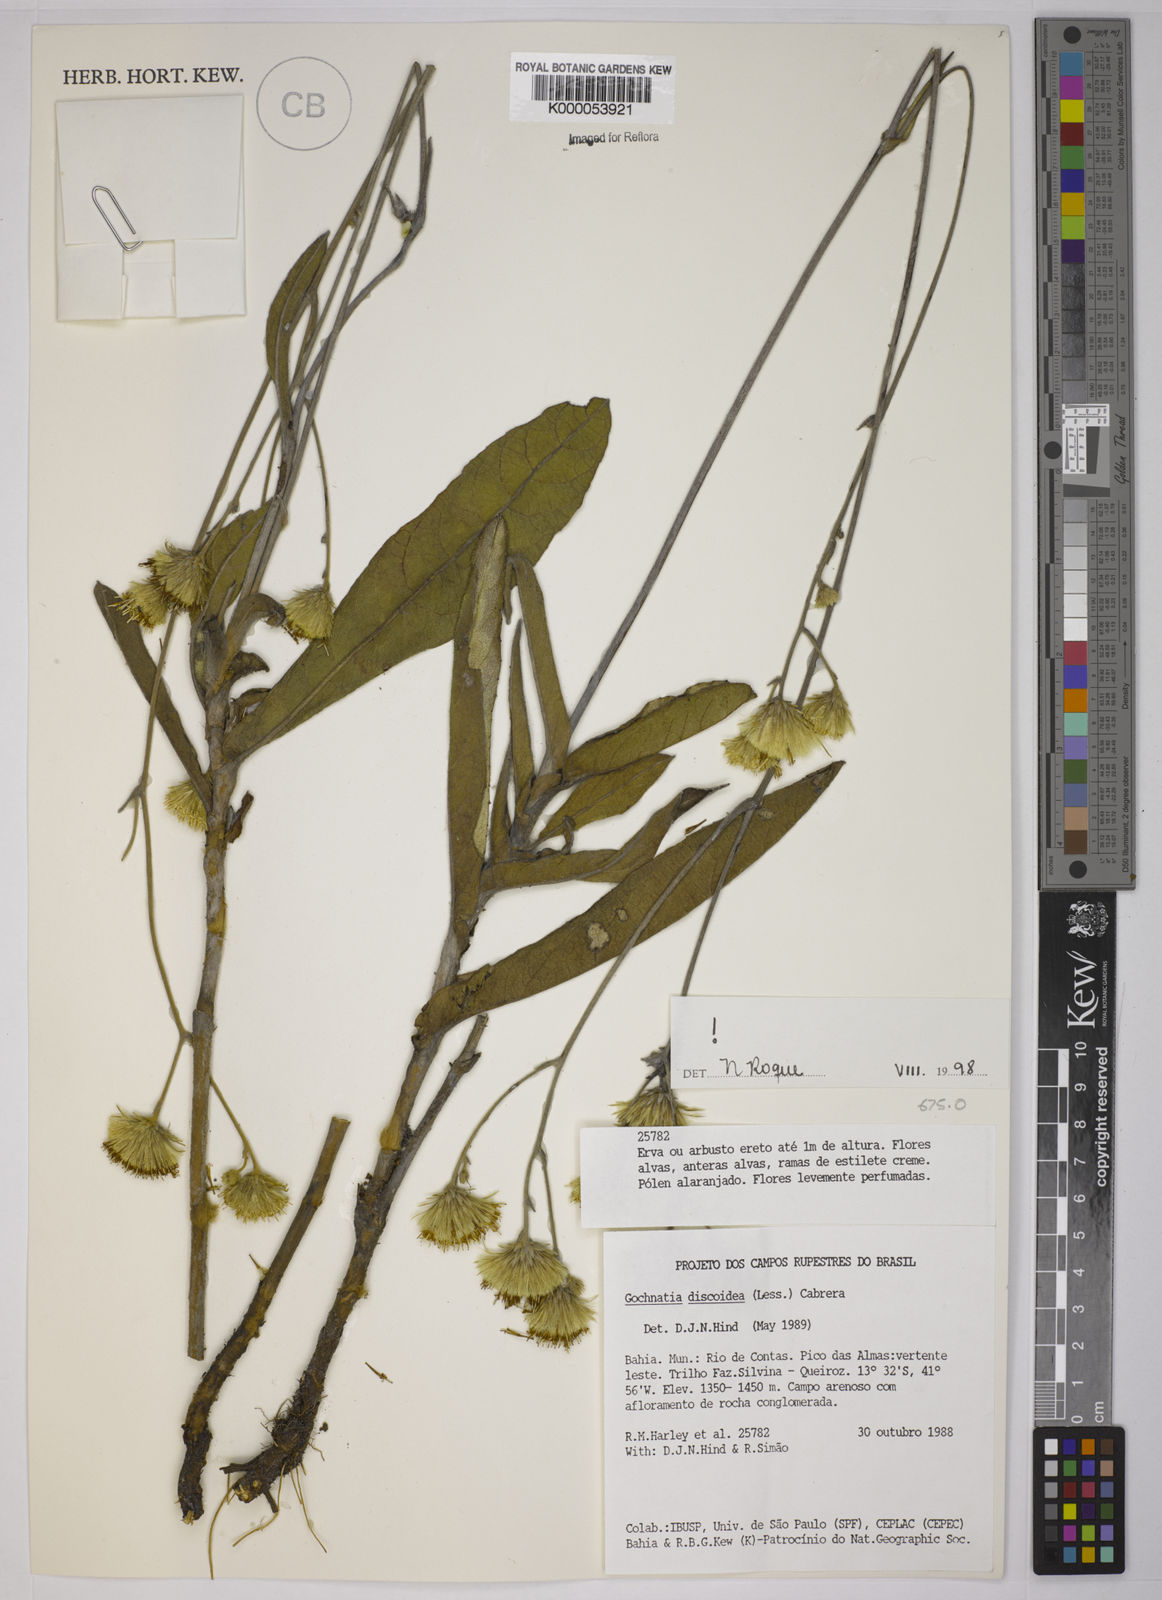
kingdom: Plantae
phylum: Tracheophyta
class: Magnoliopsida
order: Asterales
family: Asteraceae
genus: Richterago
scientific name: Richterago discoidea
